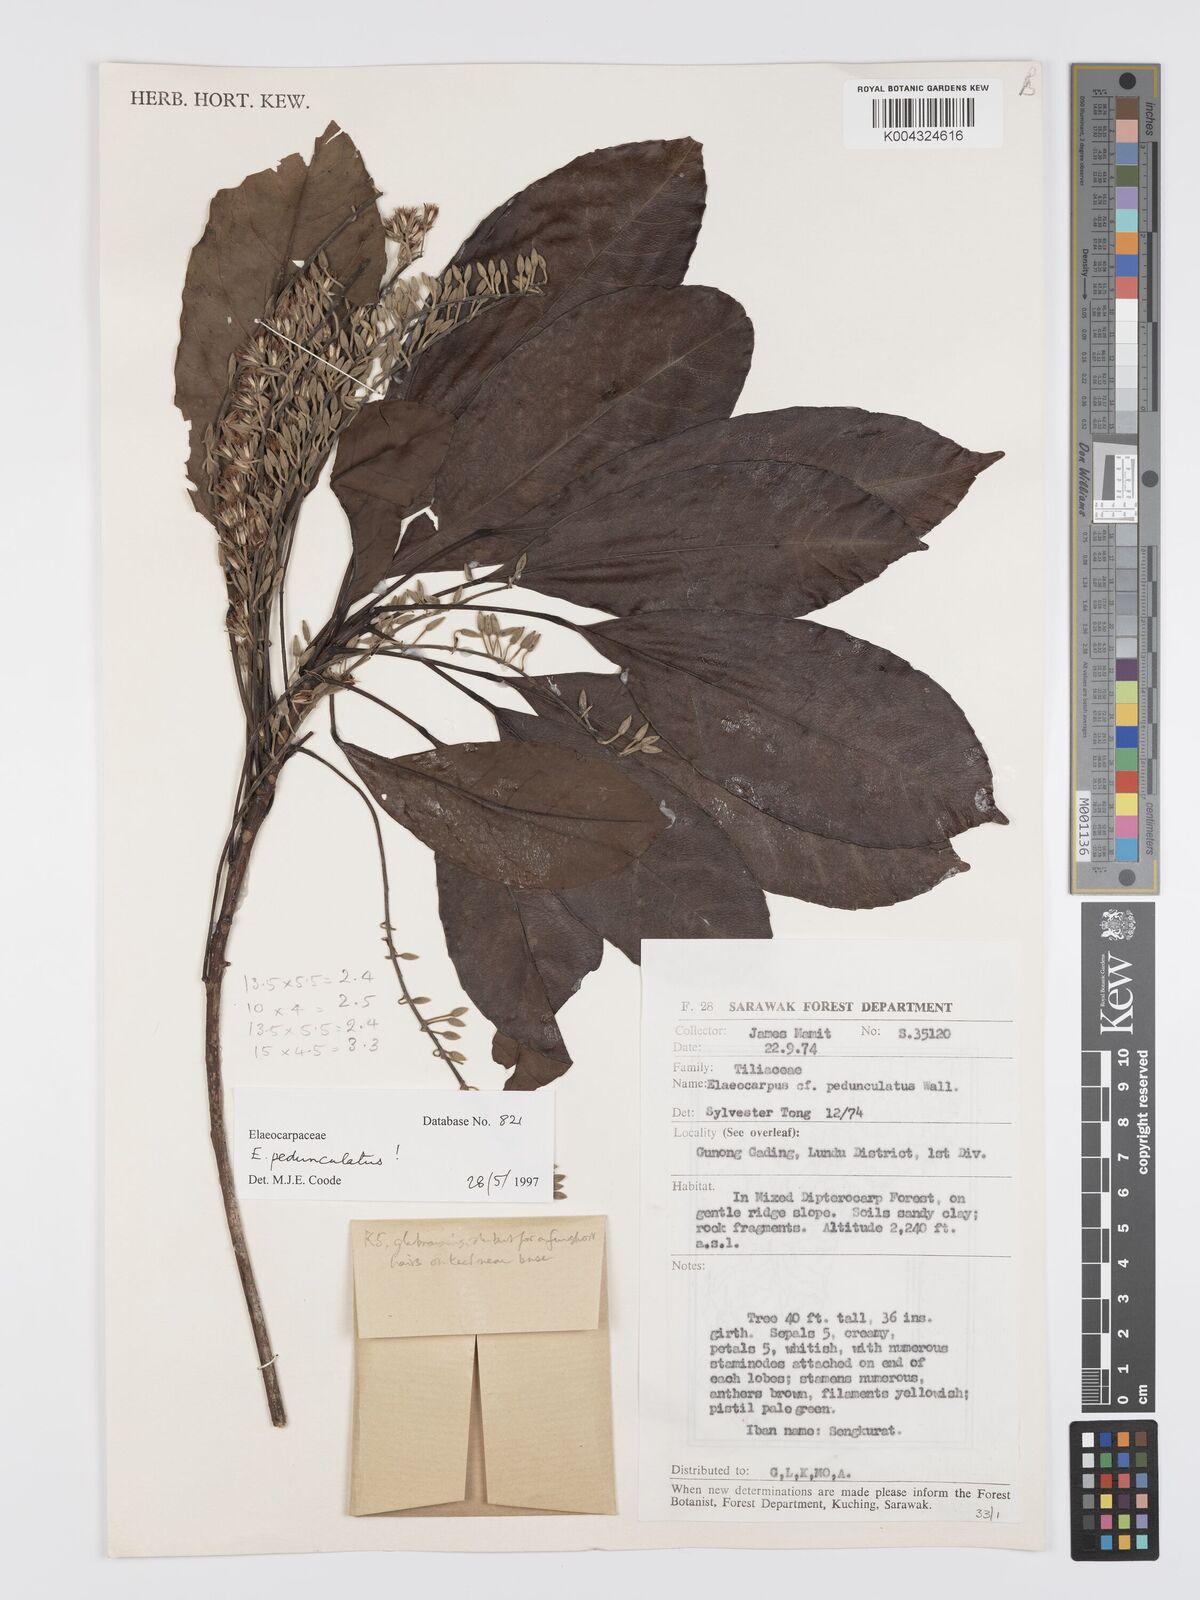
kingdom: Plantae
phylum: Tracheophyta
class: Magnoliopsida
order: Oxalidales
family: Elaeocarpaceae
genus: Elaeocarpus
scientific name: Elaeocarpus pedunculatus
